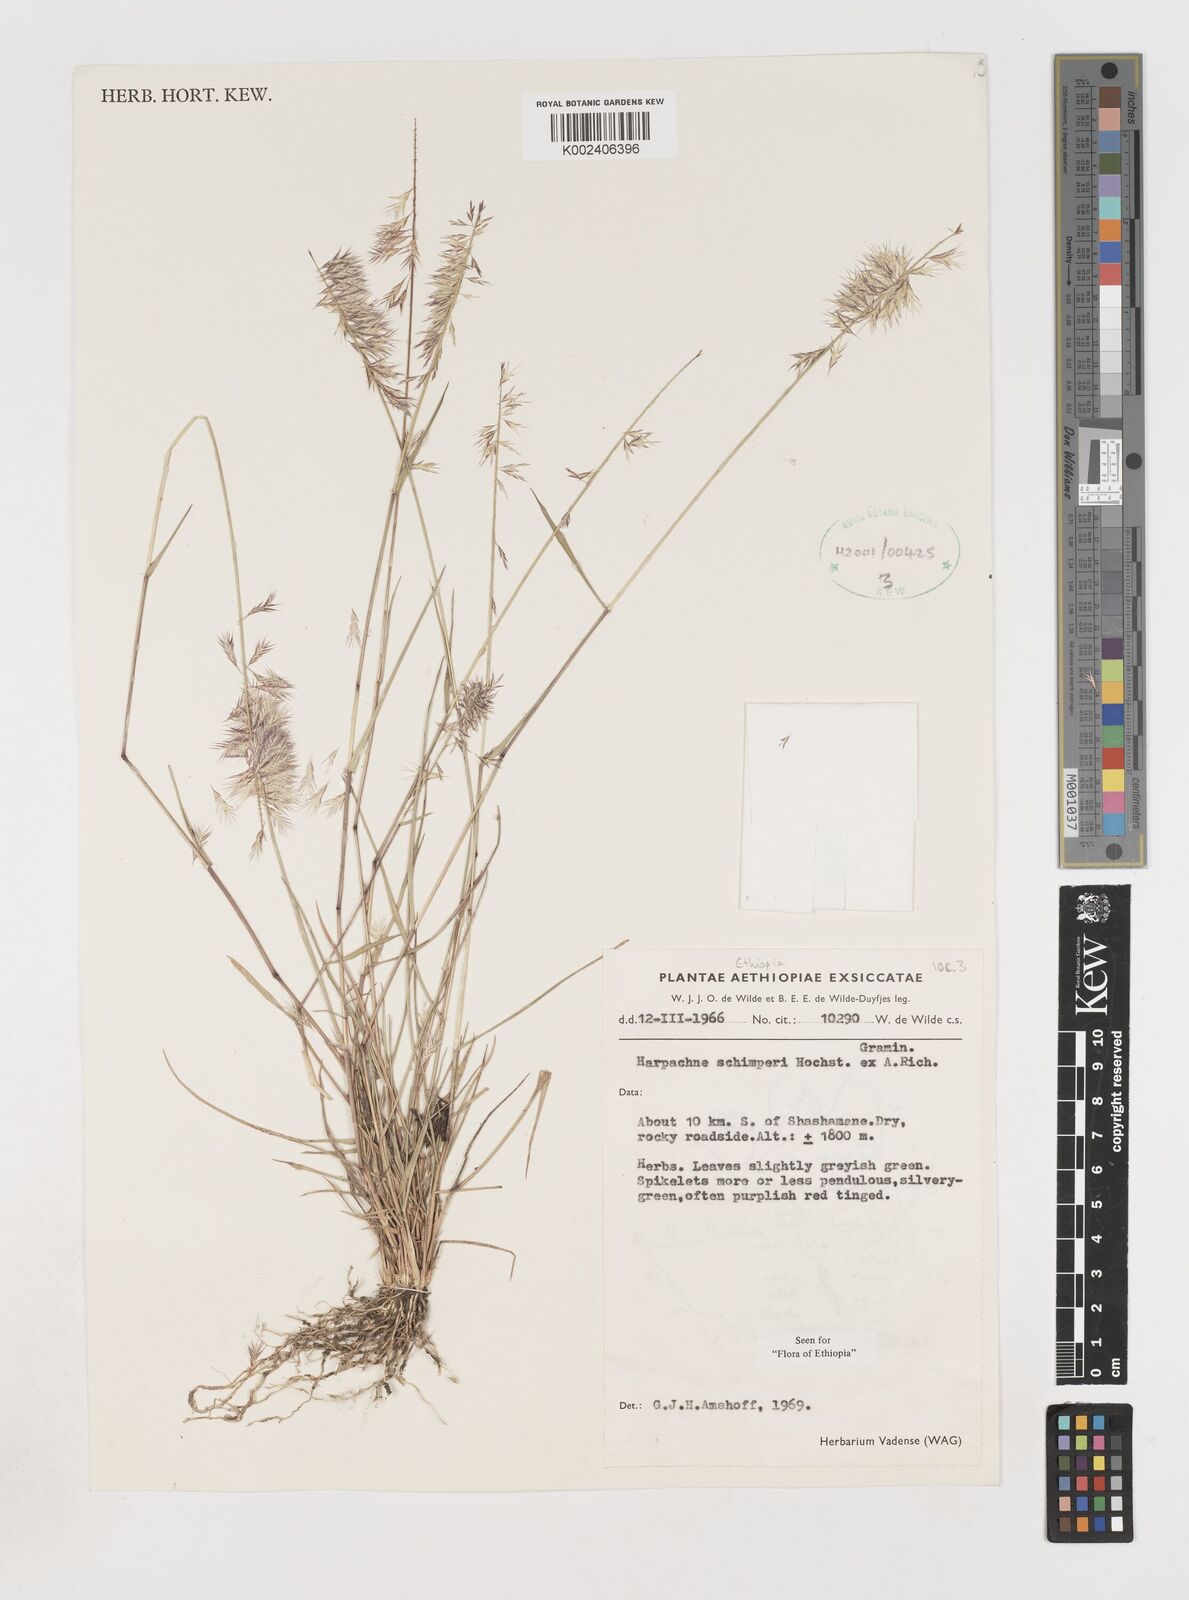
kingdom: Plantae
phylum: Tracheophyta
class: Liliopsida
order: Poales
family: Poaceae
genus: Harpachne
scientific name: Harpachne schimperi
